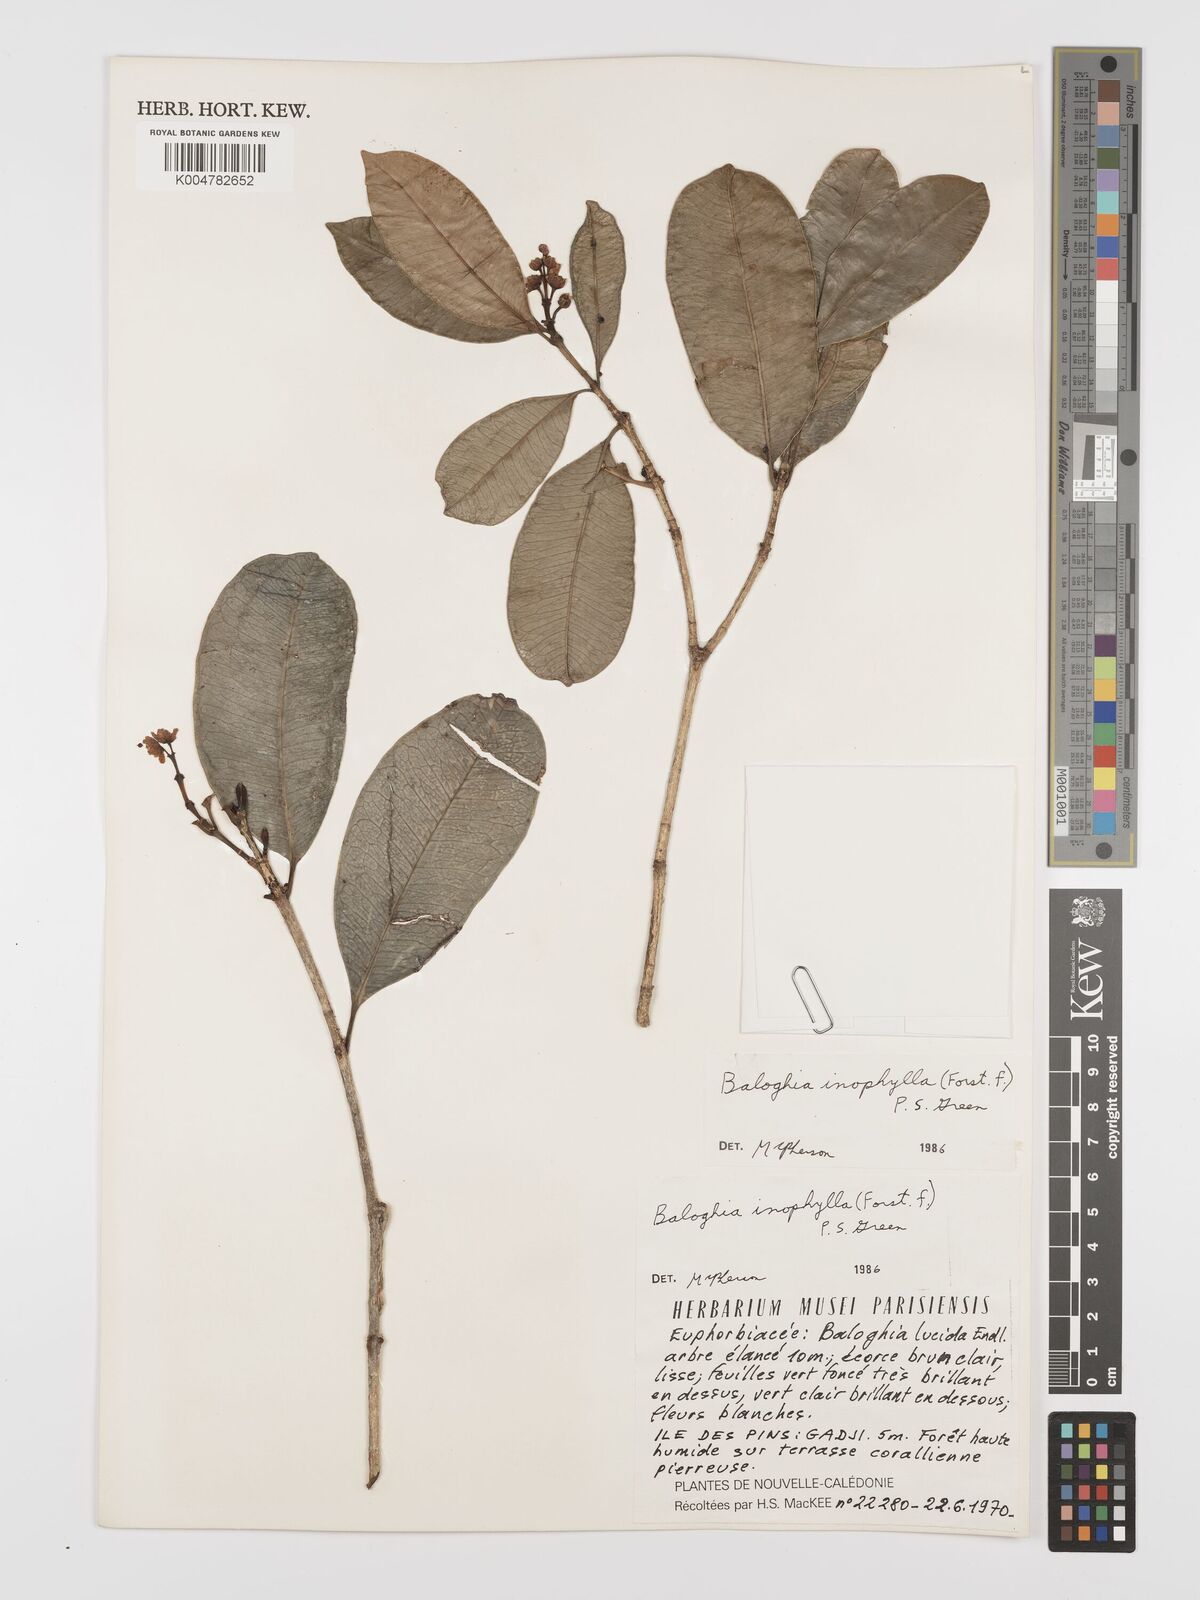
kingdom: Plantae
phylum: Tracheophyta
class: Magnoliopsida
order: Malpighiales
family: Euphorbiaceae
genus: Baloghia
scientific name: Baloghia inophylla
